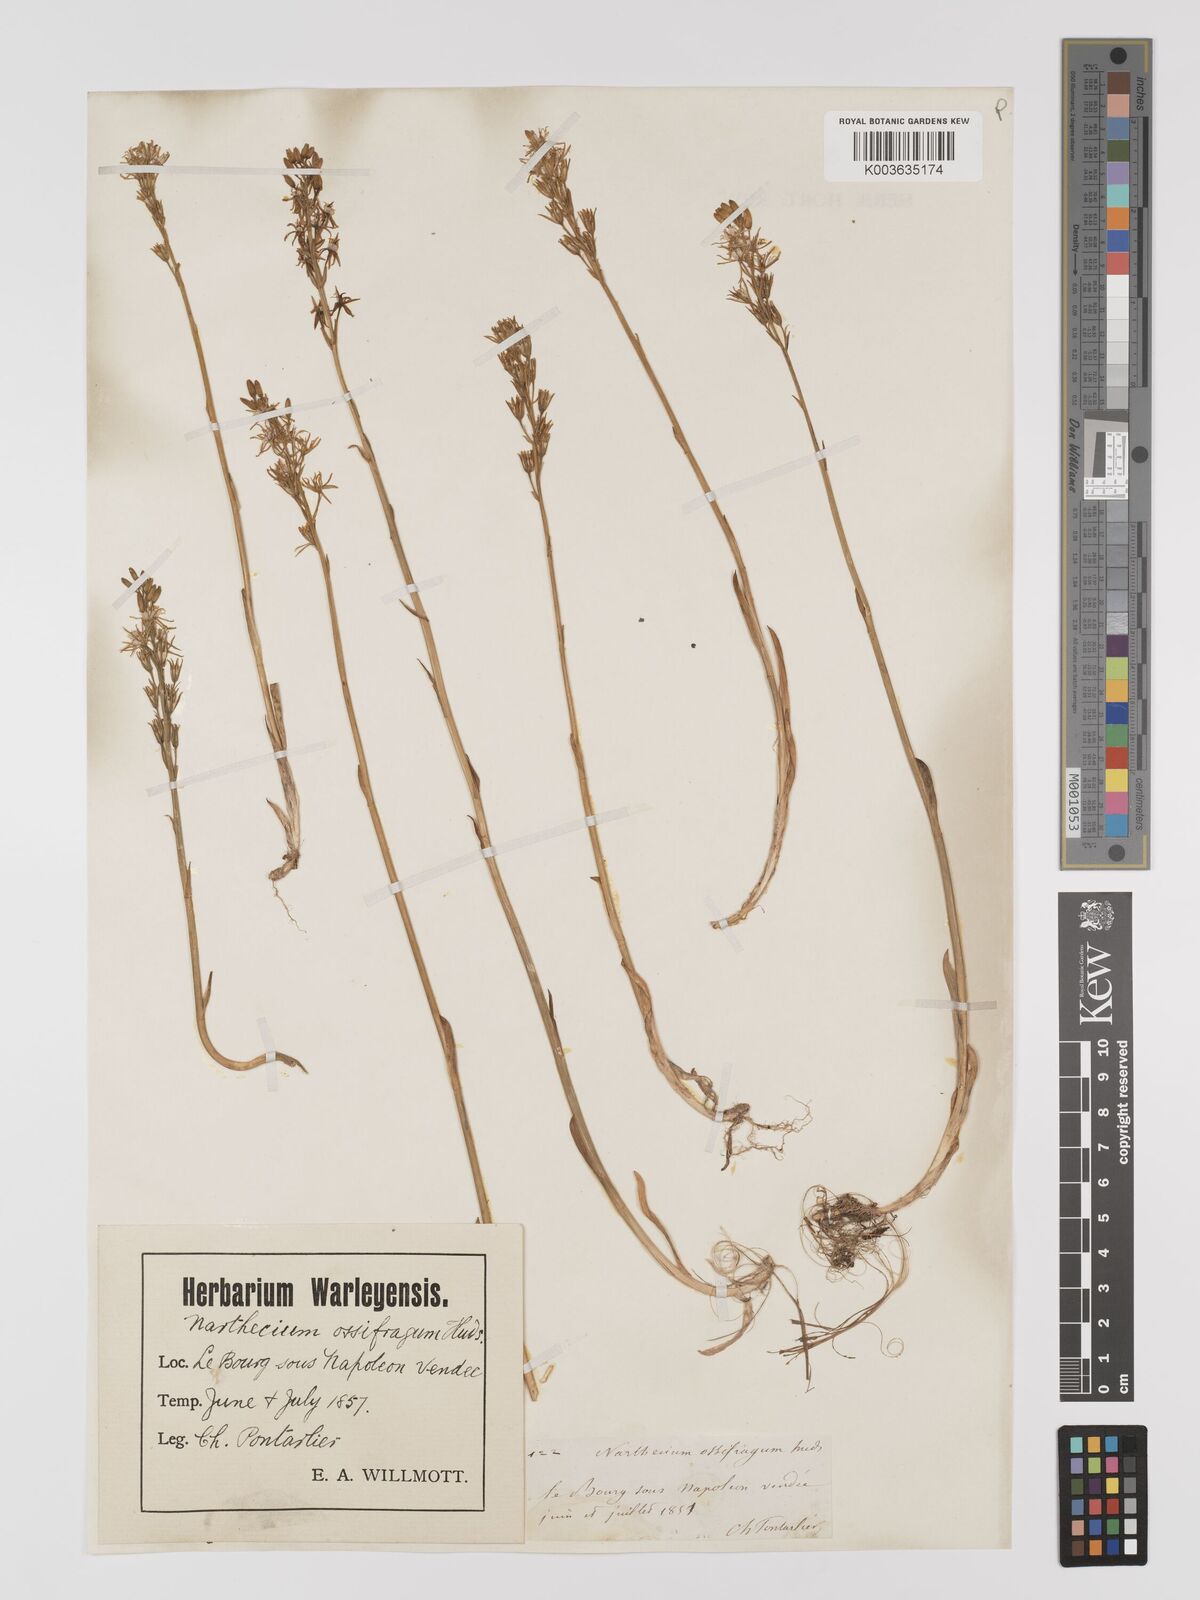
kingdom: Plantae
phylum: Tracheophyta
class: Liliopsida
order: Dioscoreales
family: Nartheciaceae
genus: Narthecium
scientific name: Narthecium ossifragum
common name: Bog asphodel
